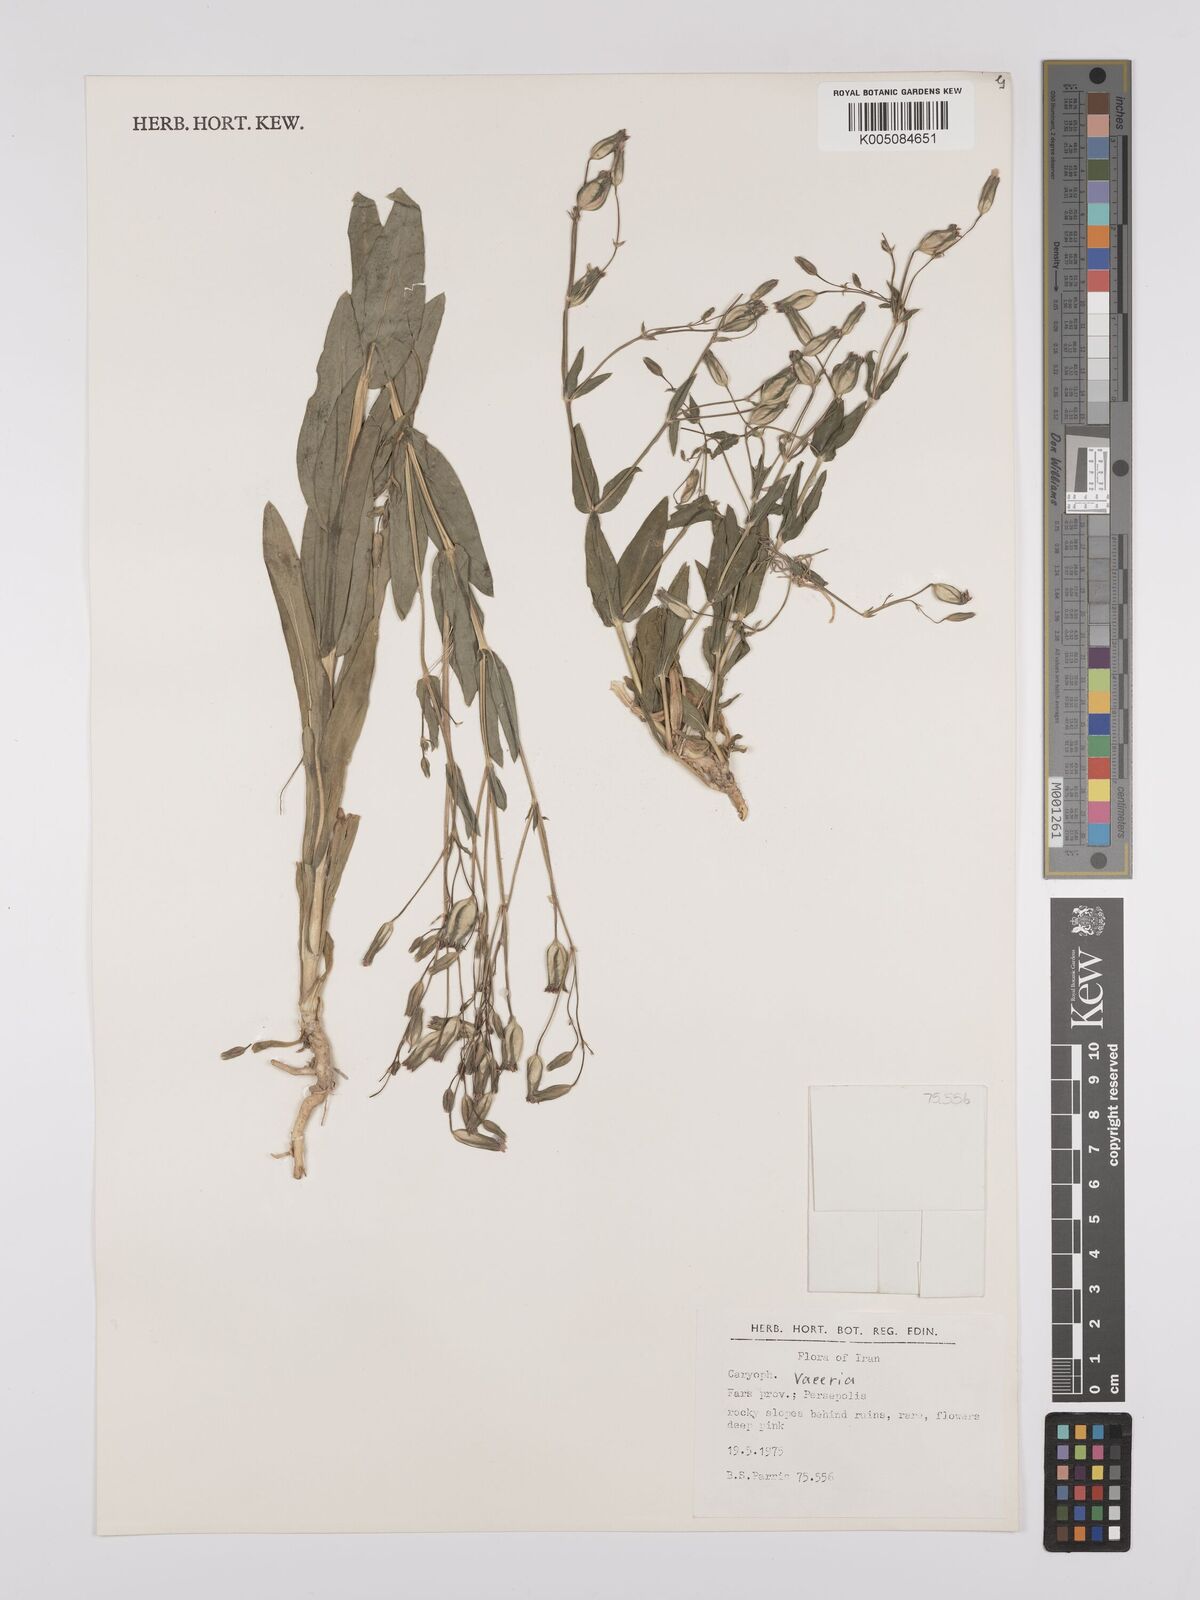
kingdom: Plantae
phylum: Tracheophyta
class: Magnoliopsida
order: Caryophyllales
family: Caryophyllaceae
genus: Vaccaria
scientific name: Vaccaria
